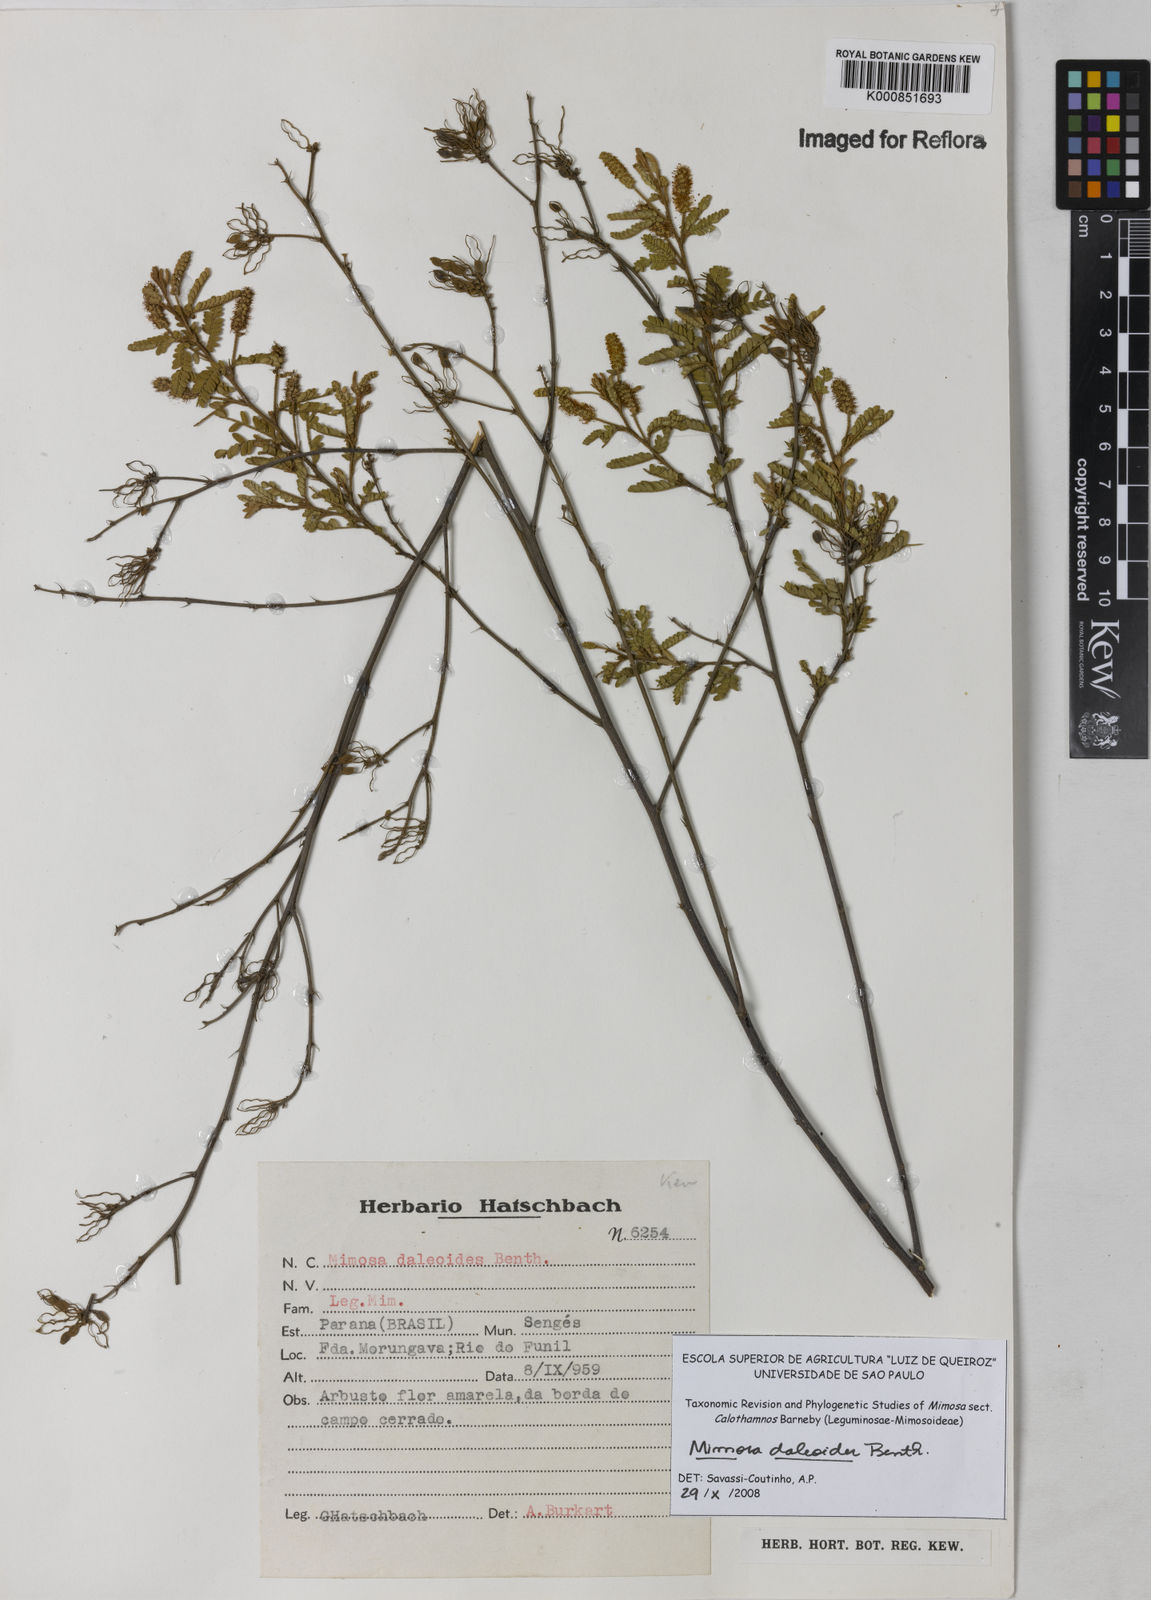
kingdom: Plantae
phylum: Tracheophyta
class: Magnoliopsida
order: Fabales
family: Fabaceae
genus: Mimosa
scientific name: Mimosa daleoides
